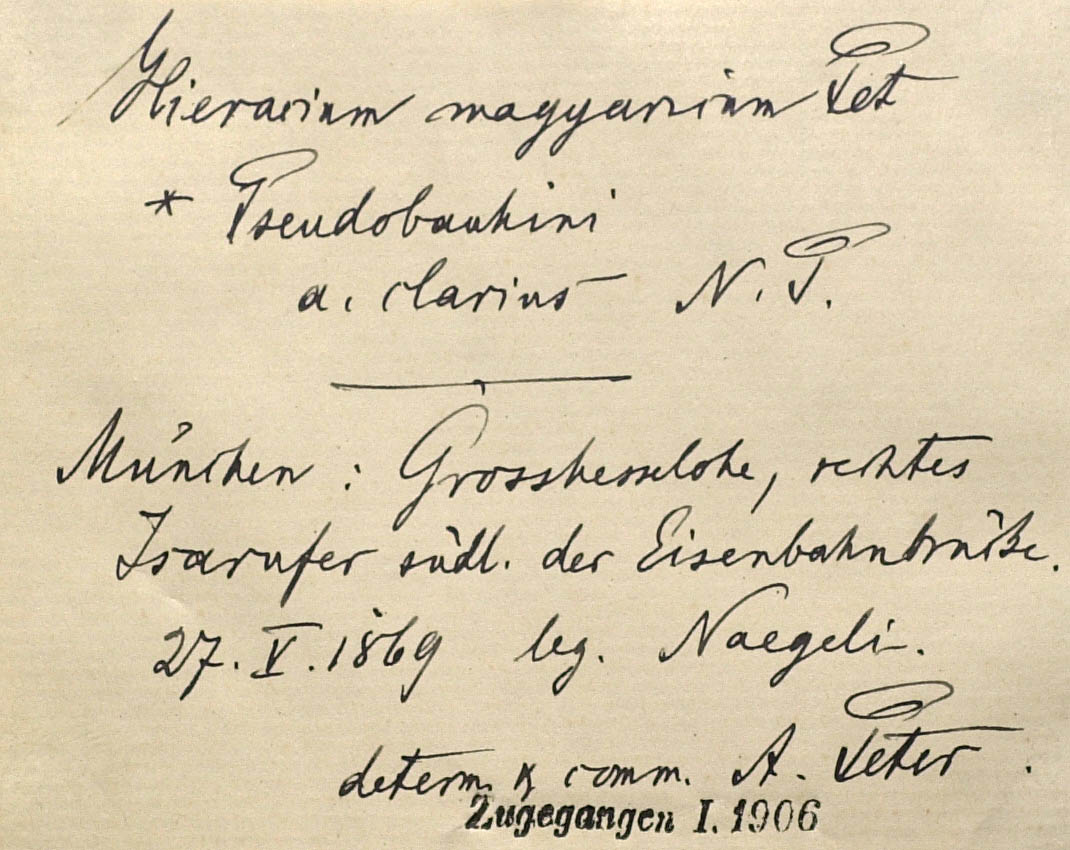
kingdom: Plantae
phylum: Tracheophyta
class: Magnoliopsida
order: Asterales
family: Asteraceae
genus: Pilosella
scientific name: Pilosella bauhini
